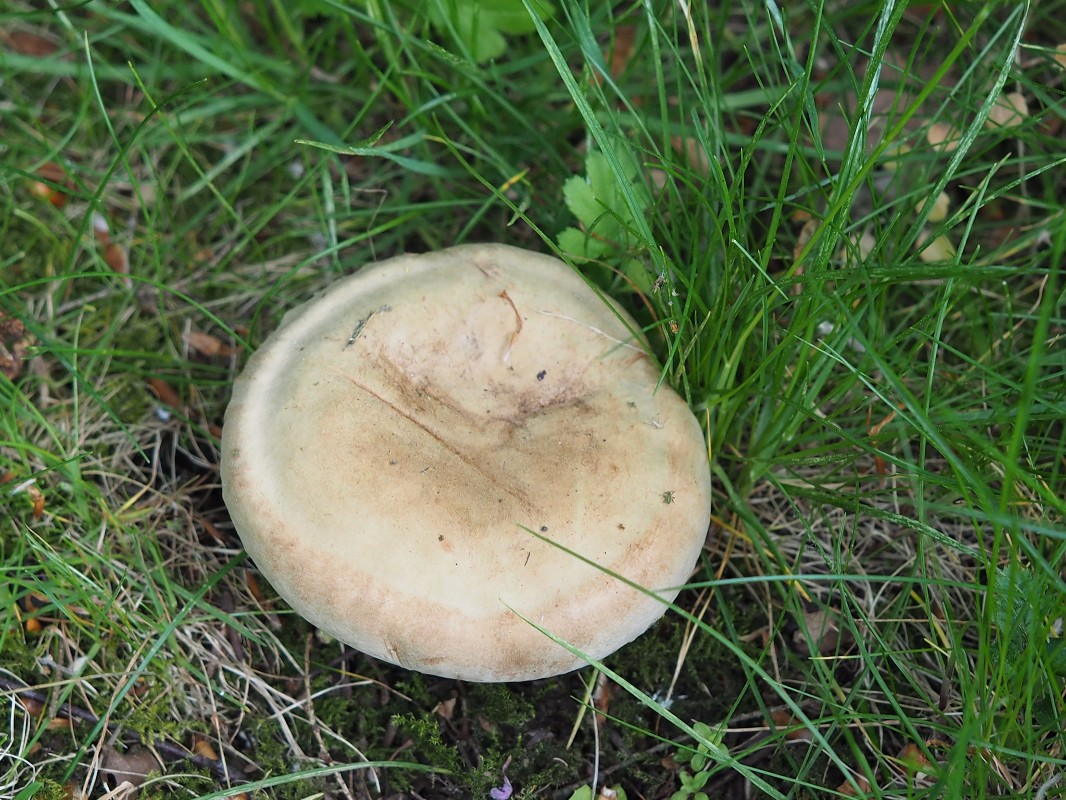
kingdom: Fungi
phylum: Basidiomycota
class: Agaricomycetes
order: Boletales
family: Paxillaceae
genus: Paxillus
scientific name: Paxillus obscurisporus
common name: mahognisporet netbladhat
